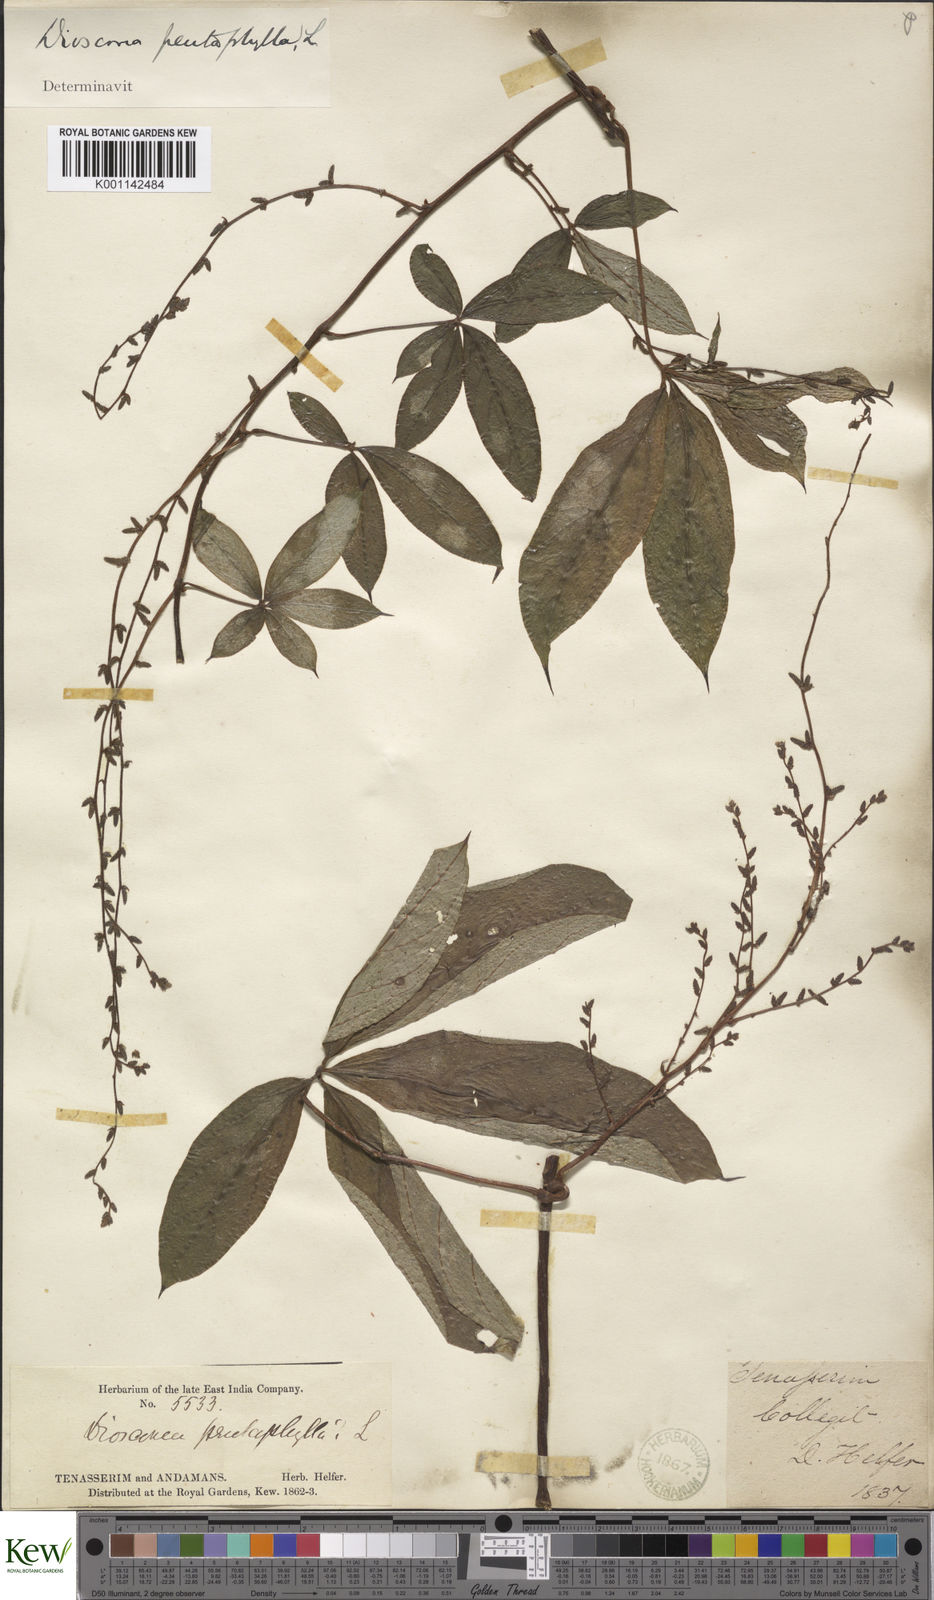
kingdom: Plantae
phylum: Tracheophyta
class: Liliopsida
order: Dioscoreales
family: Dioscoreaceae
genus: Dioscorea
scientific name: Dioscorea pentaphylla
